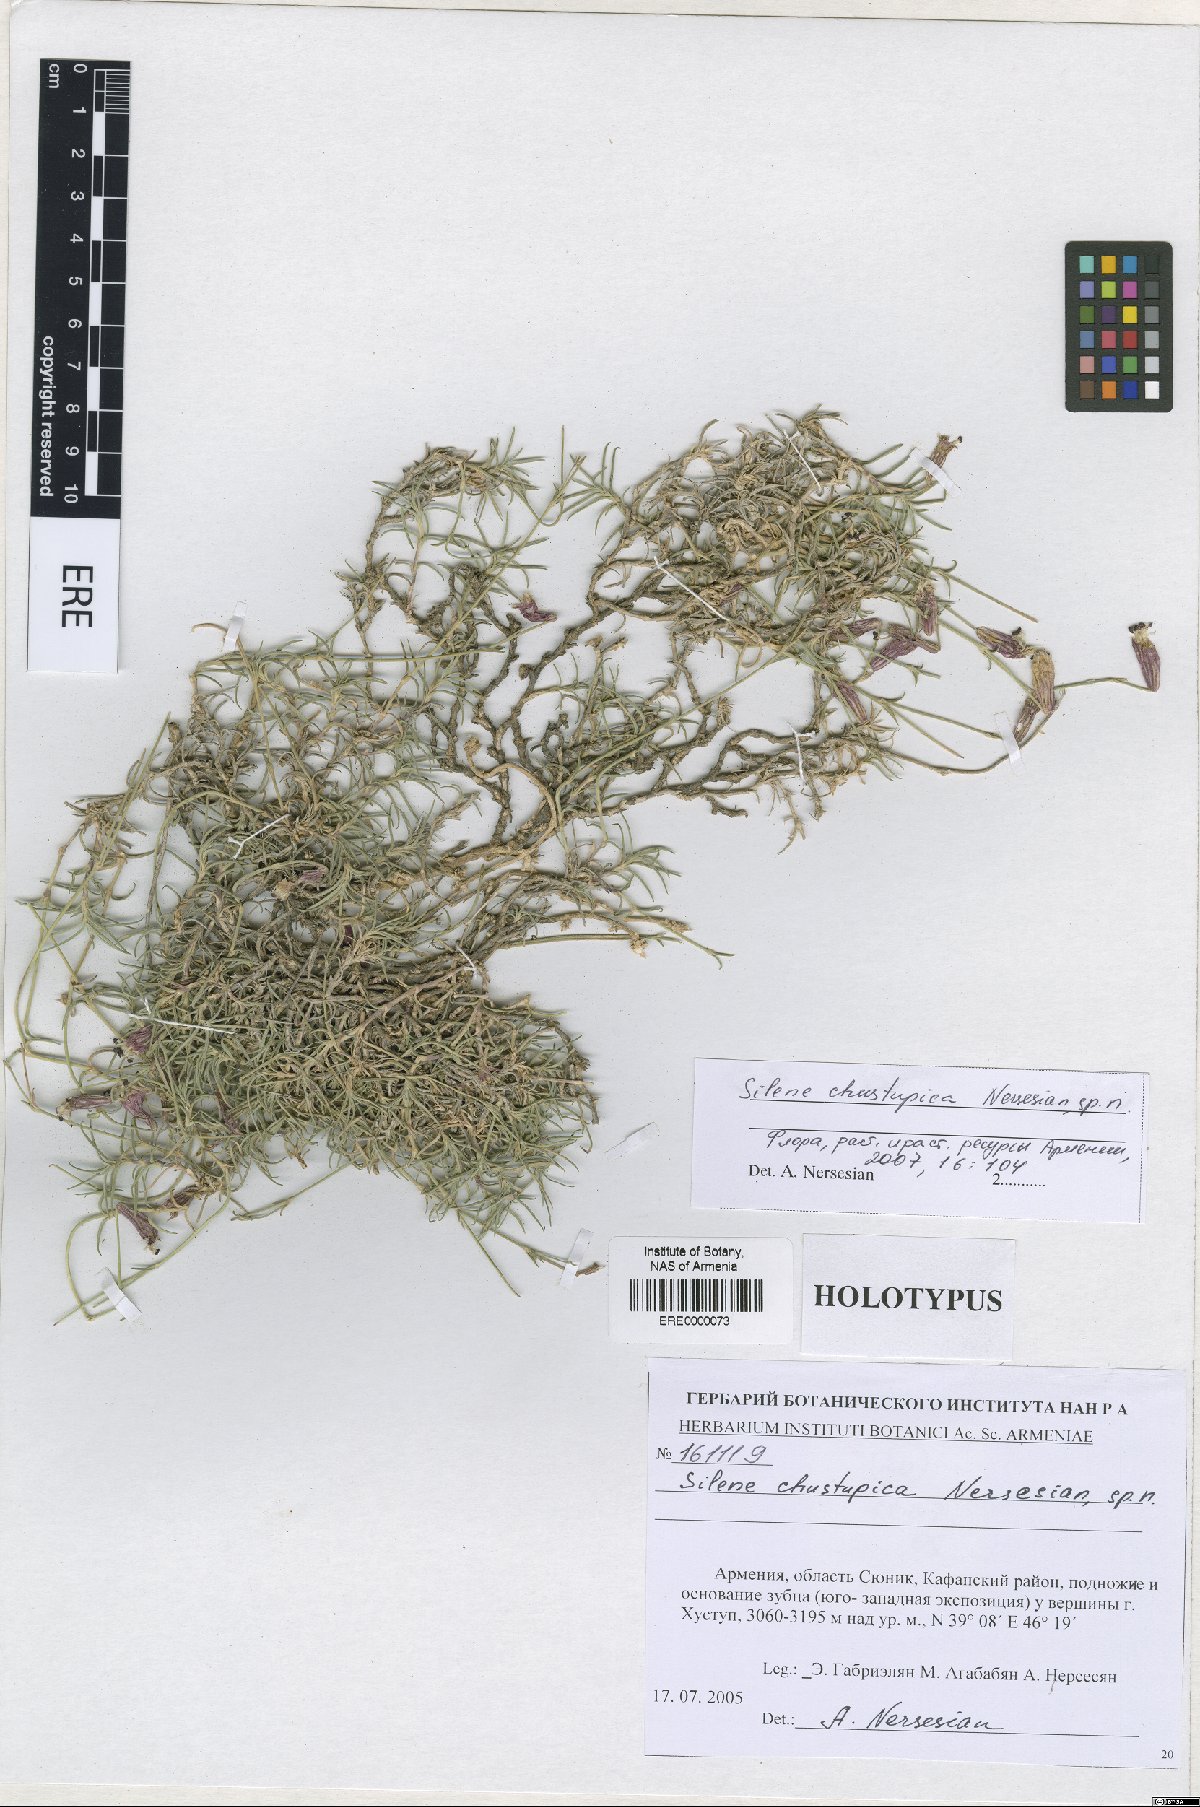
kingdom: Plantae
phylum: Tracheophyta
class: Magnoliopsida
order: Caryophyllales
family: Caryophyllaceae
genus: Silene
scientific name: Silene pungens
